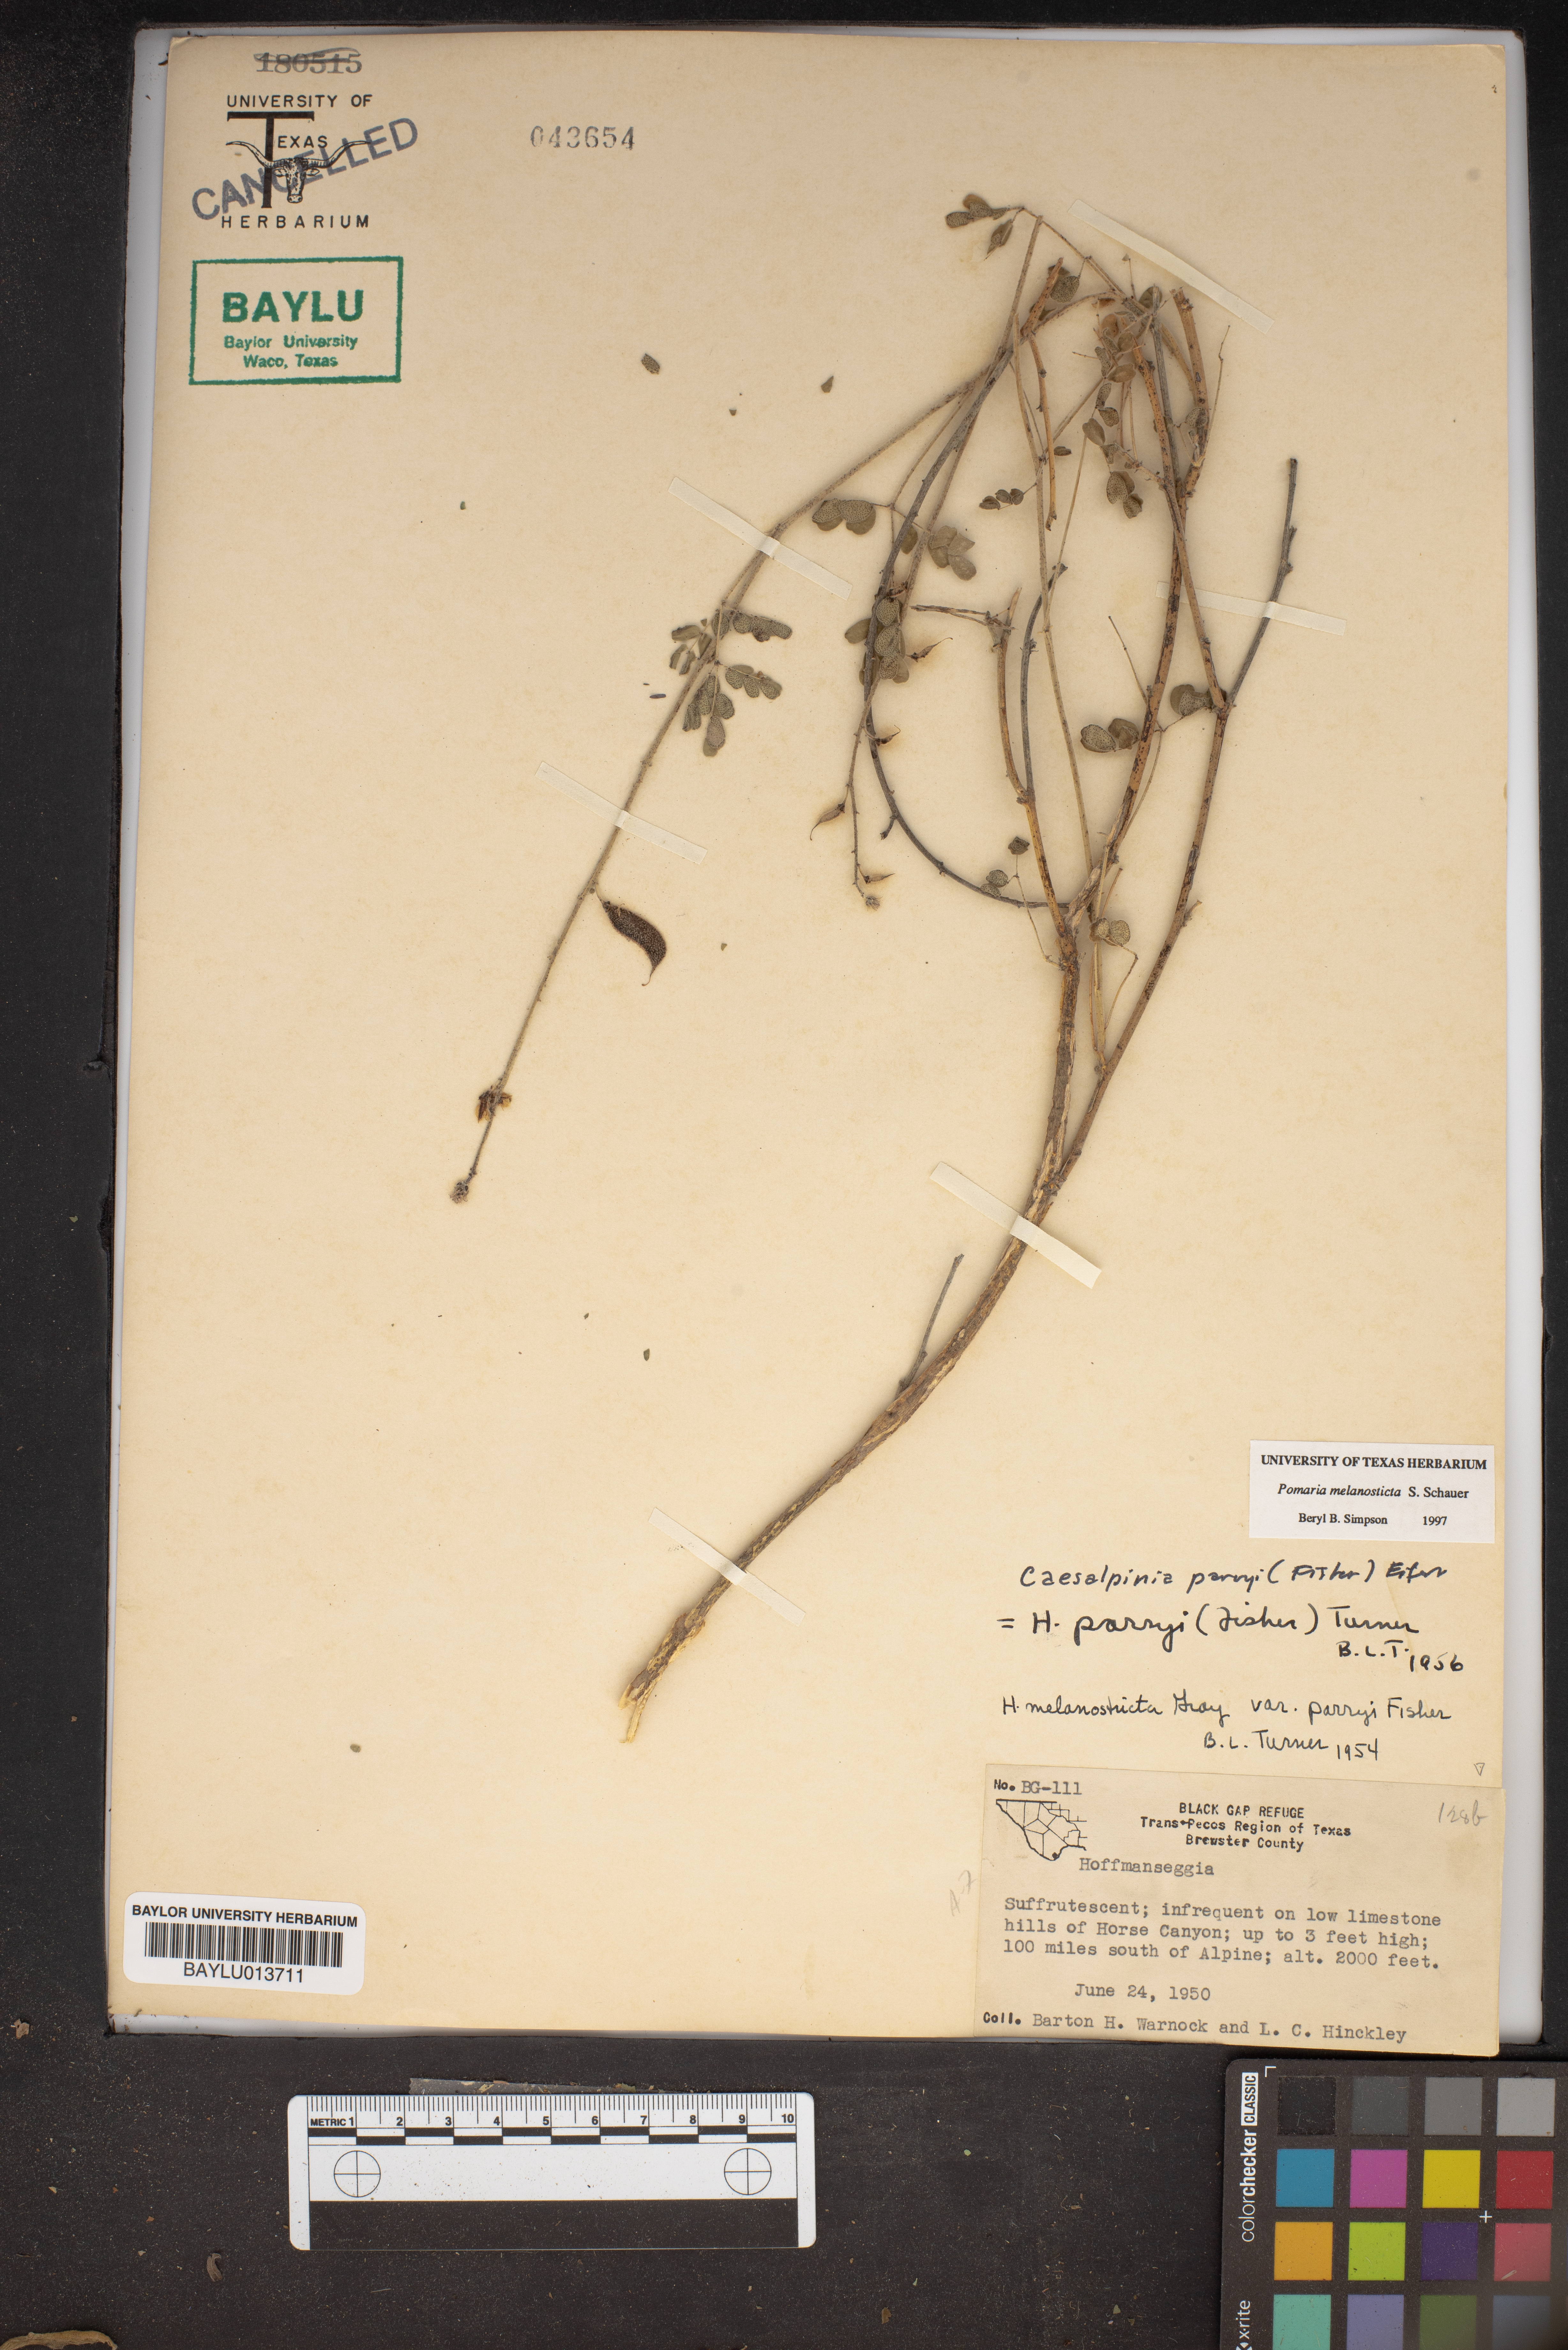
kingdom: Plantae
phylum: Tracheophyta
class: Magnoliopsida
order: Fabales
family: Fabaceae
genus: Hoffmannseggia
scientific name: Hoffmannseggia
